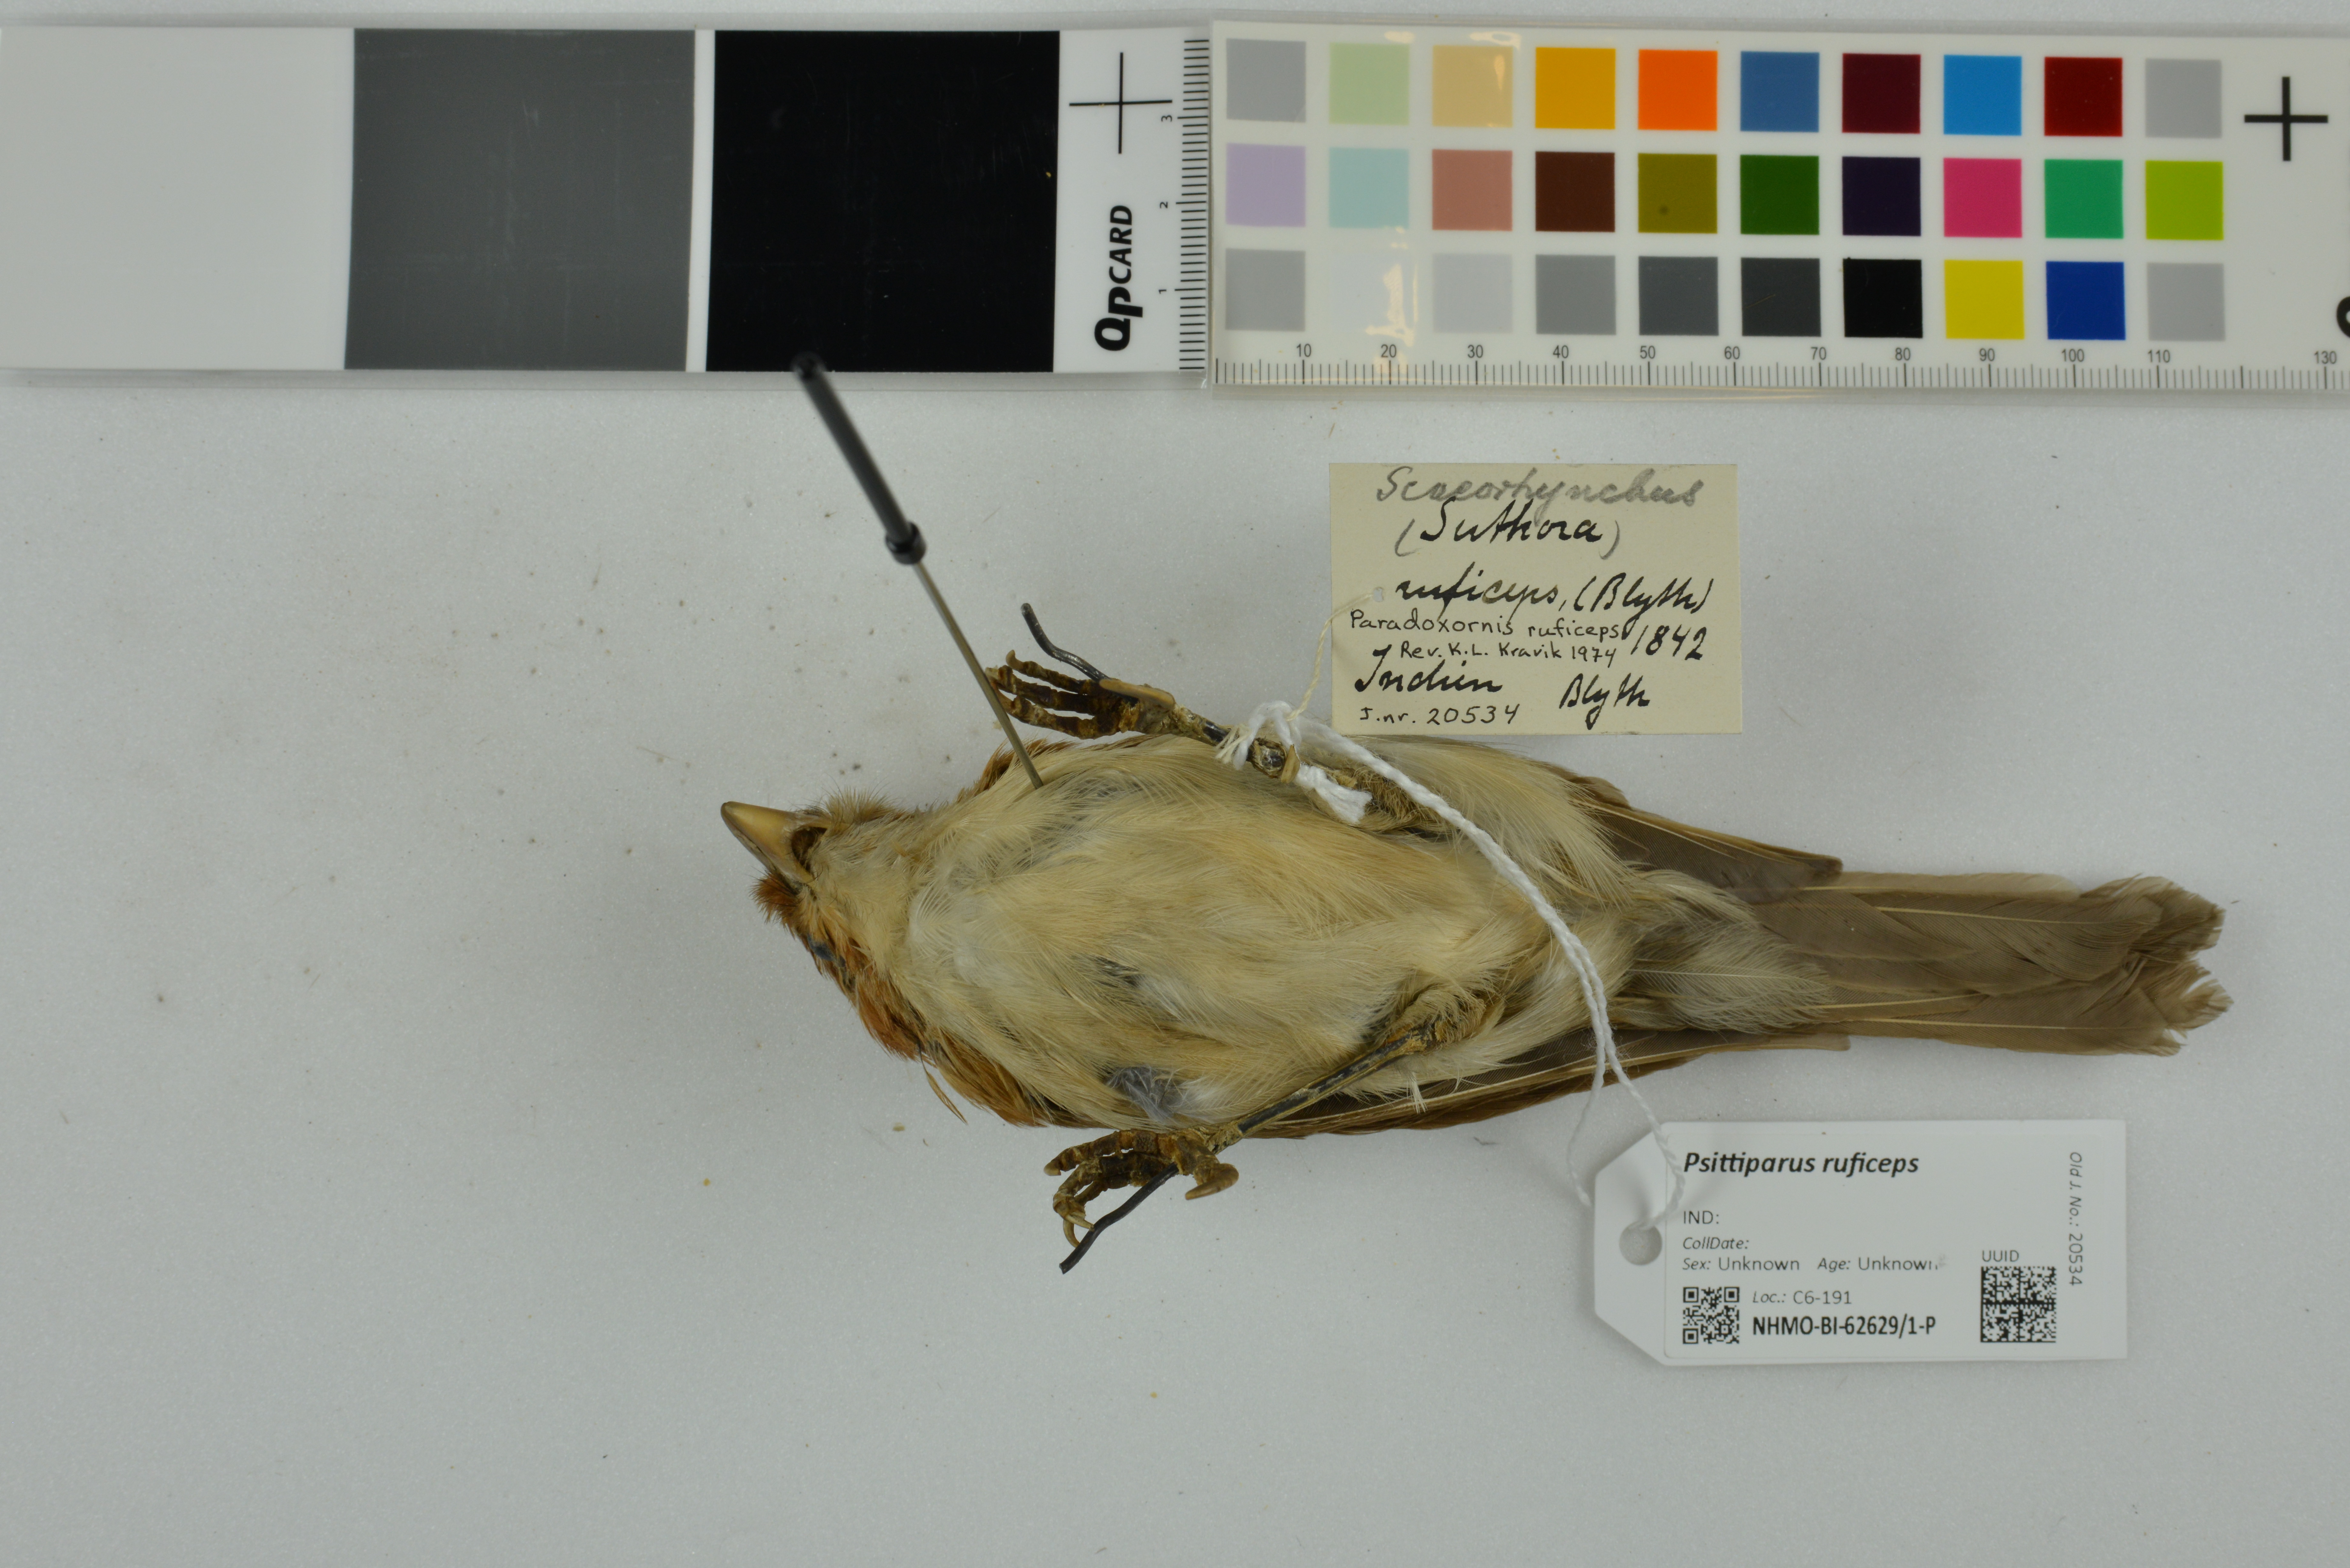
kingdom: Animalia
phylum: Chordata
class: Aves
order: Passeriformes
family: Sylviidae
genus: Psittiparus
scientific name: Psittiparus ruficeps
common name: White-breasted parrotbill
